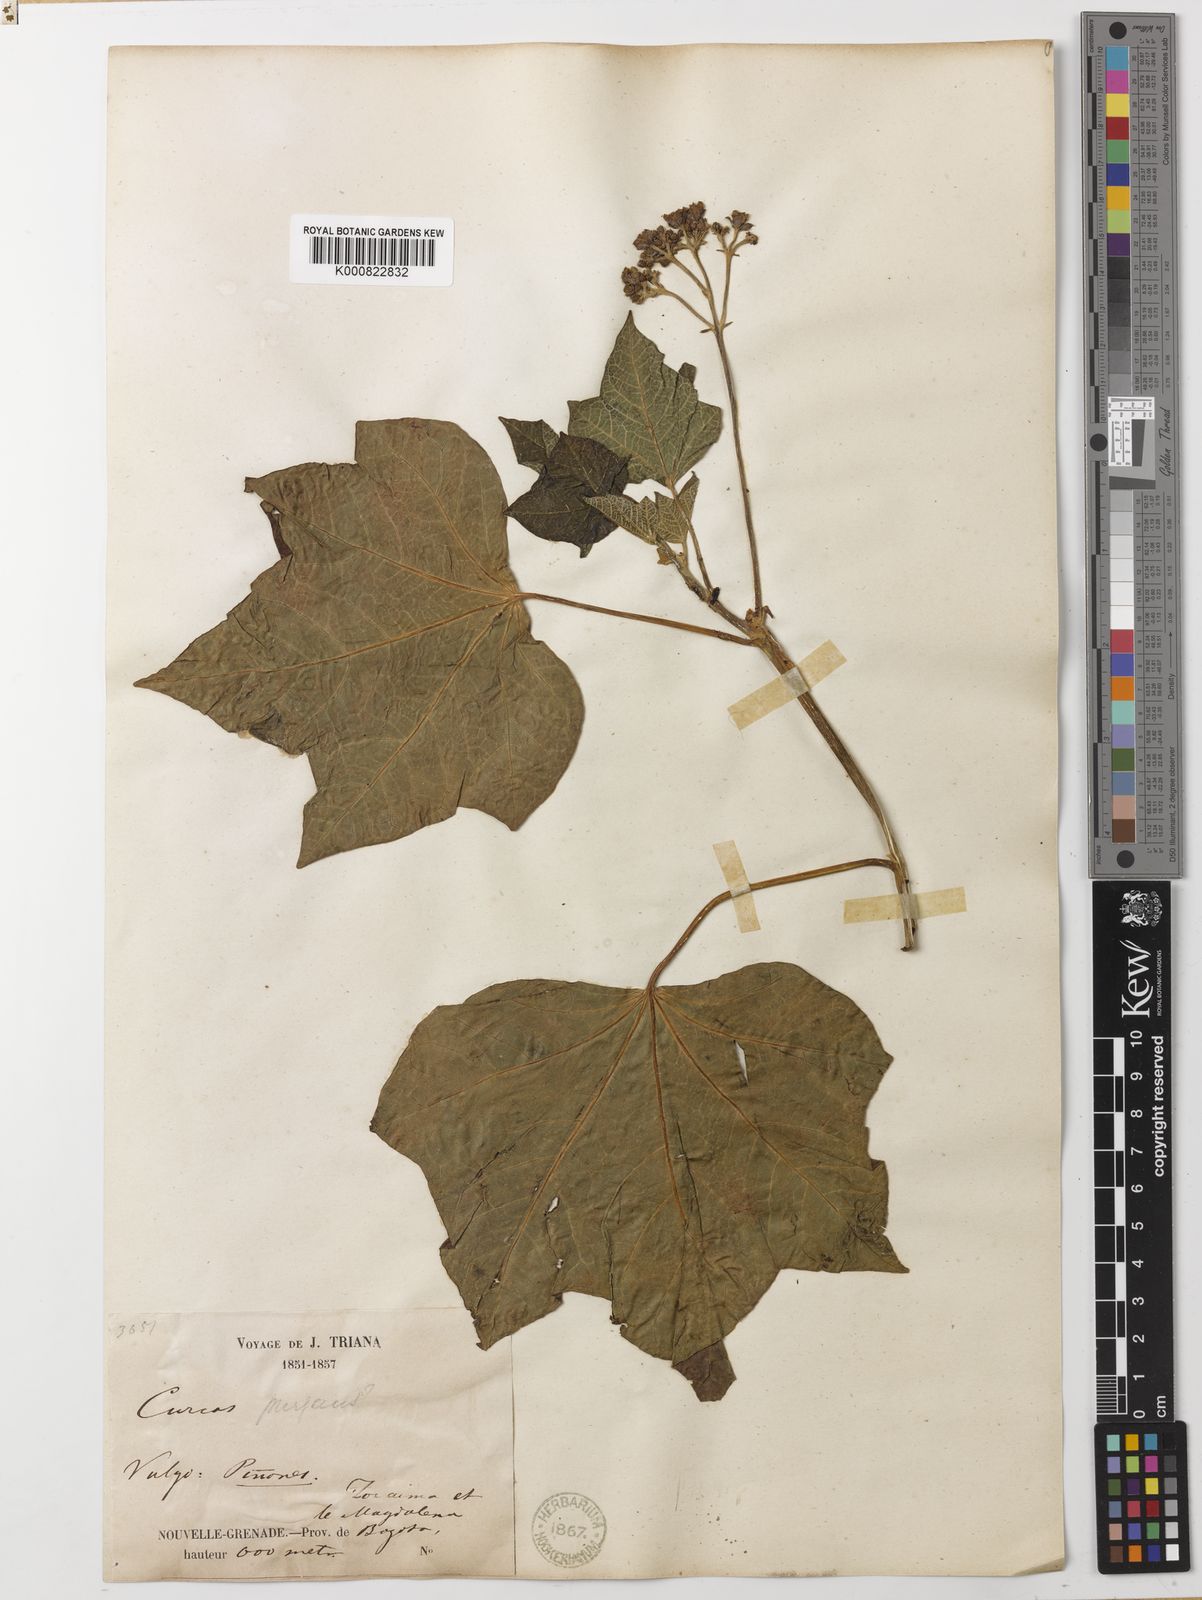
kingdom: Plantae
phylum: Tracheophyta
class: Magnoliopsida
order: Malpighiales
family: Euphorbiaceae
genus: Jatropha
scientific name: Jatropha curcas
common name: Barbados nut
